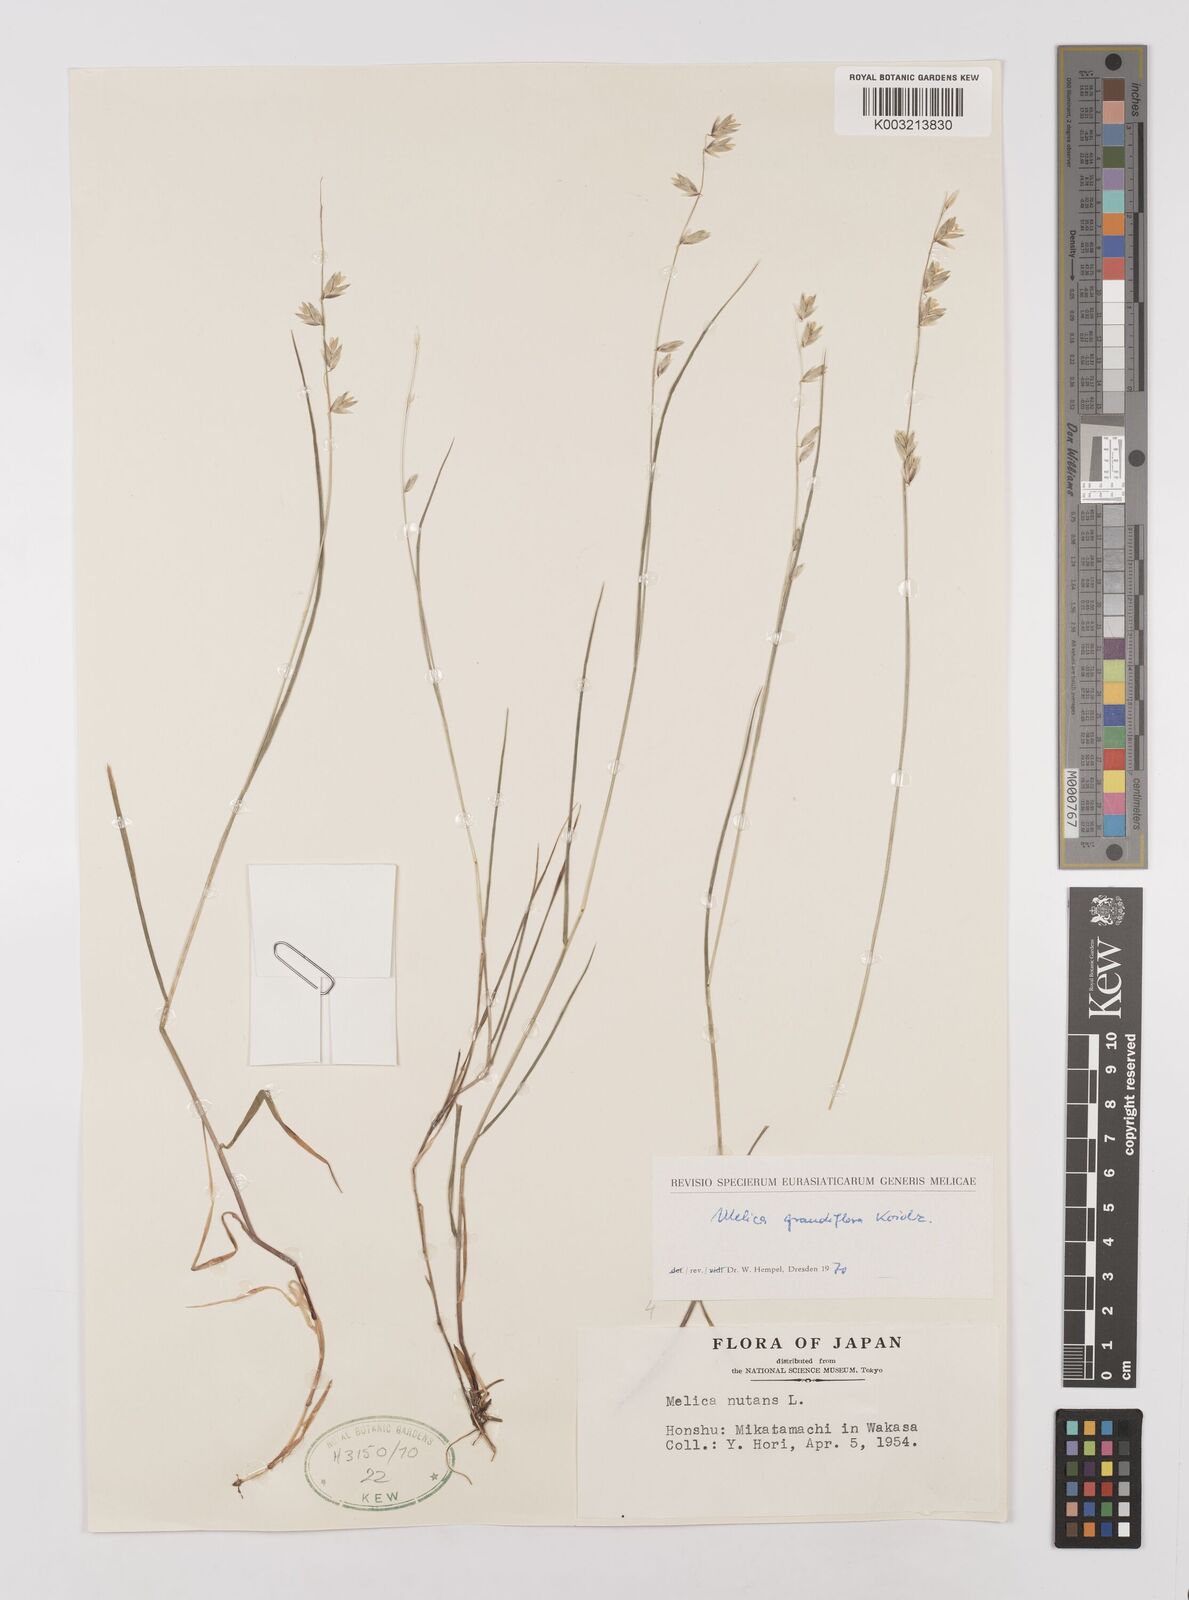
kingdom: Plantae
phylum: Tracheophyta
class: Liliopsida
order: Poales
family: Poaceae
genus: Melica
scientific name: Melica nutans
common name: Mountain melick
